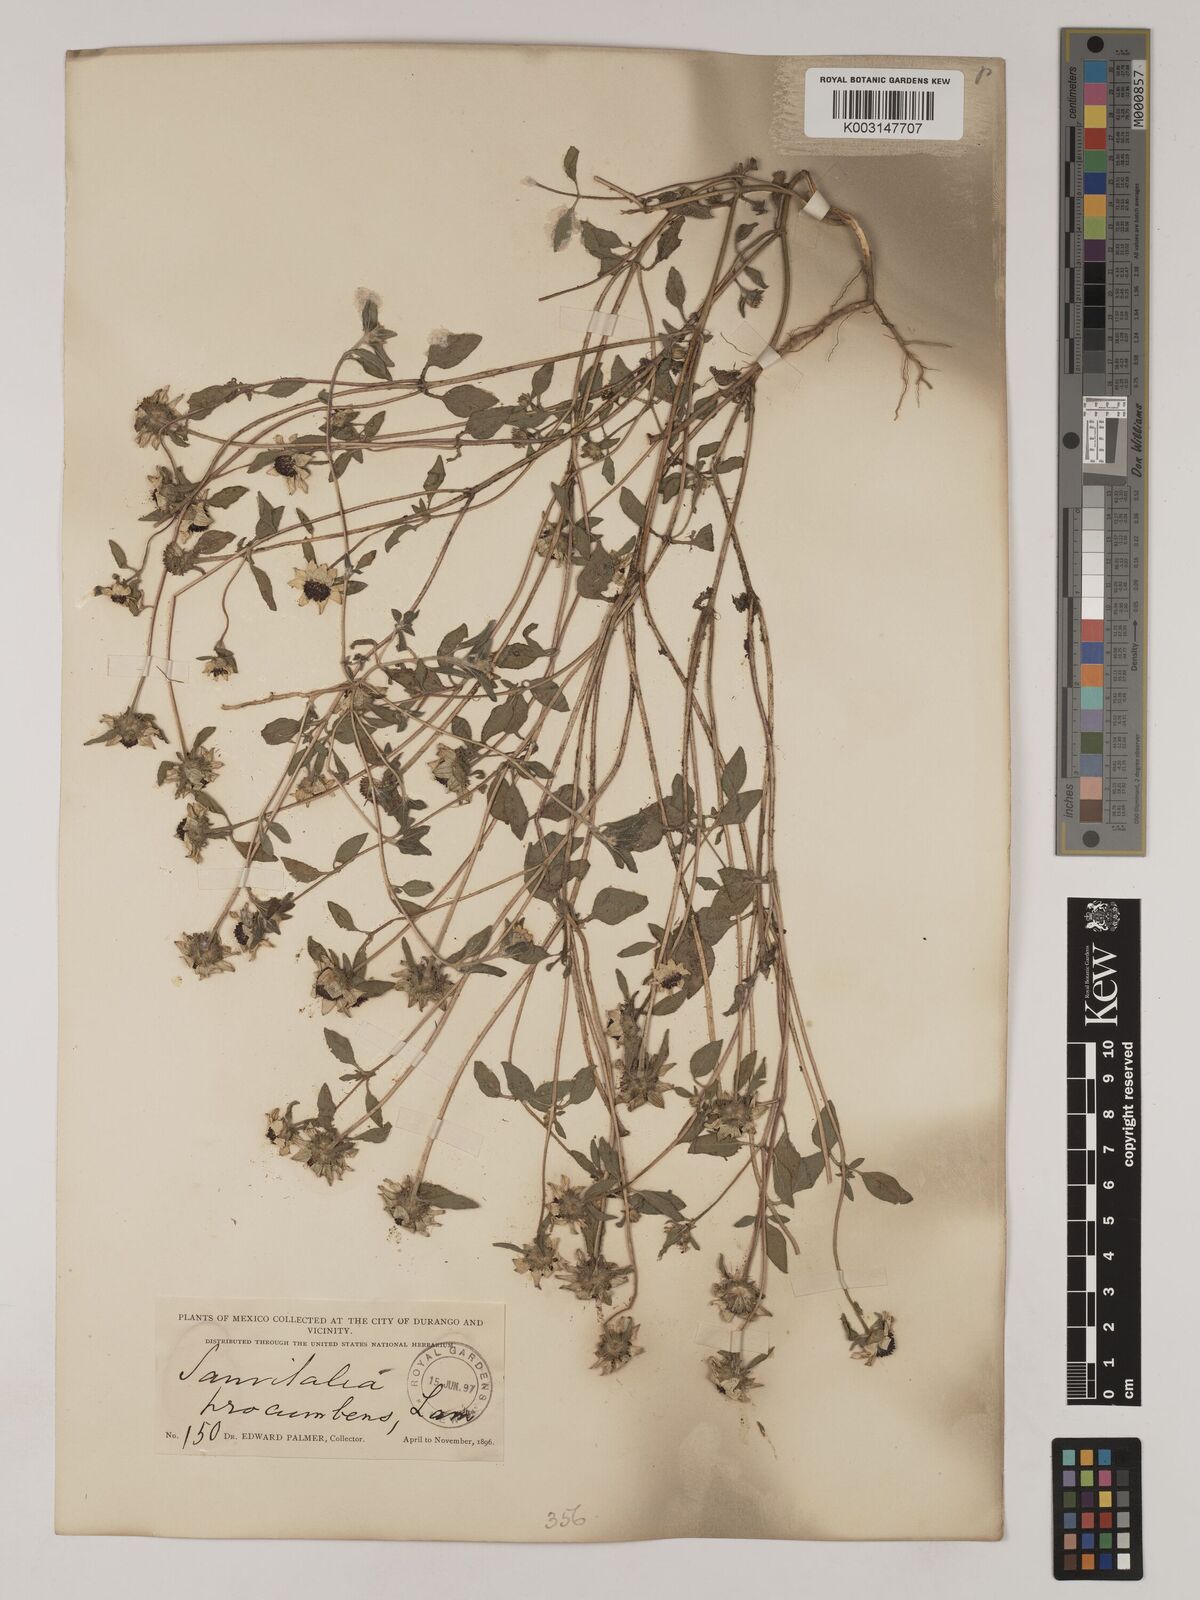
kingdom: Plantae
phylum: Tracheophyta
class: Magnoliopsida
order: Asterales
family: Asteraceae
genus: Sanvitalia
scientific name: Sanvitalia procumbens
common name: Mexican creeping zinnia
